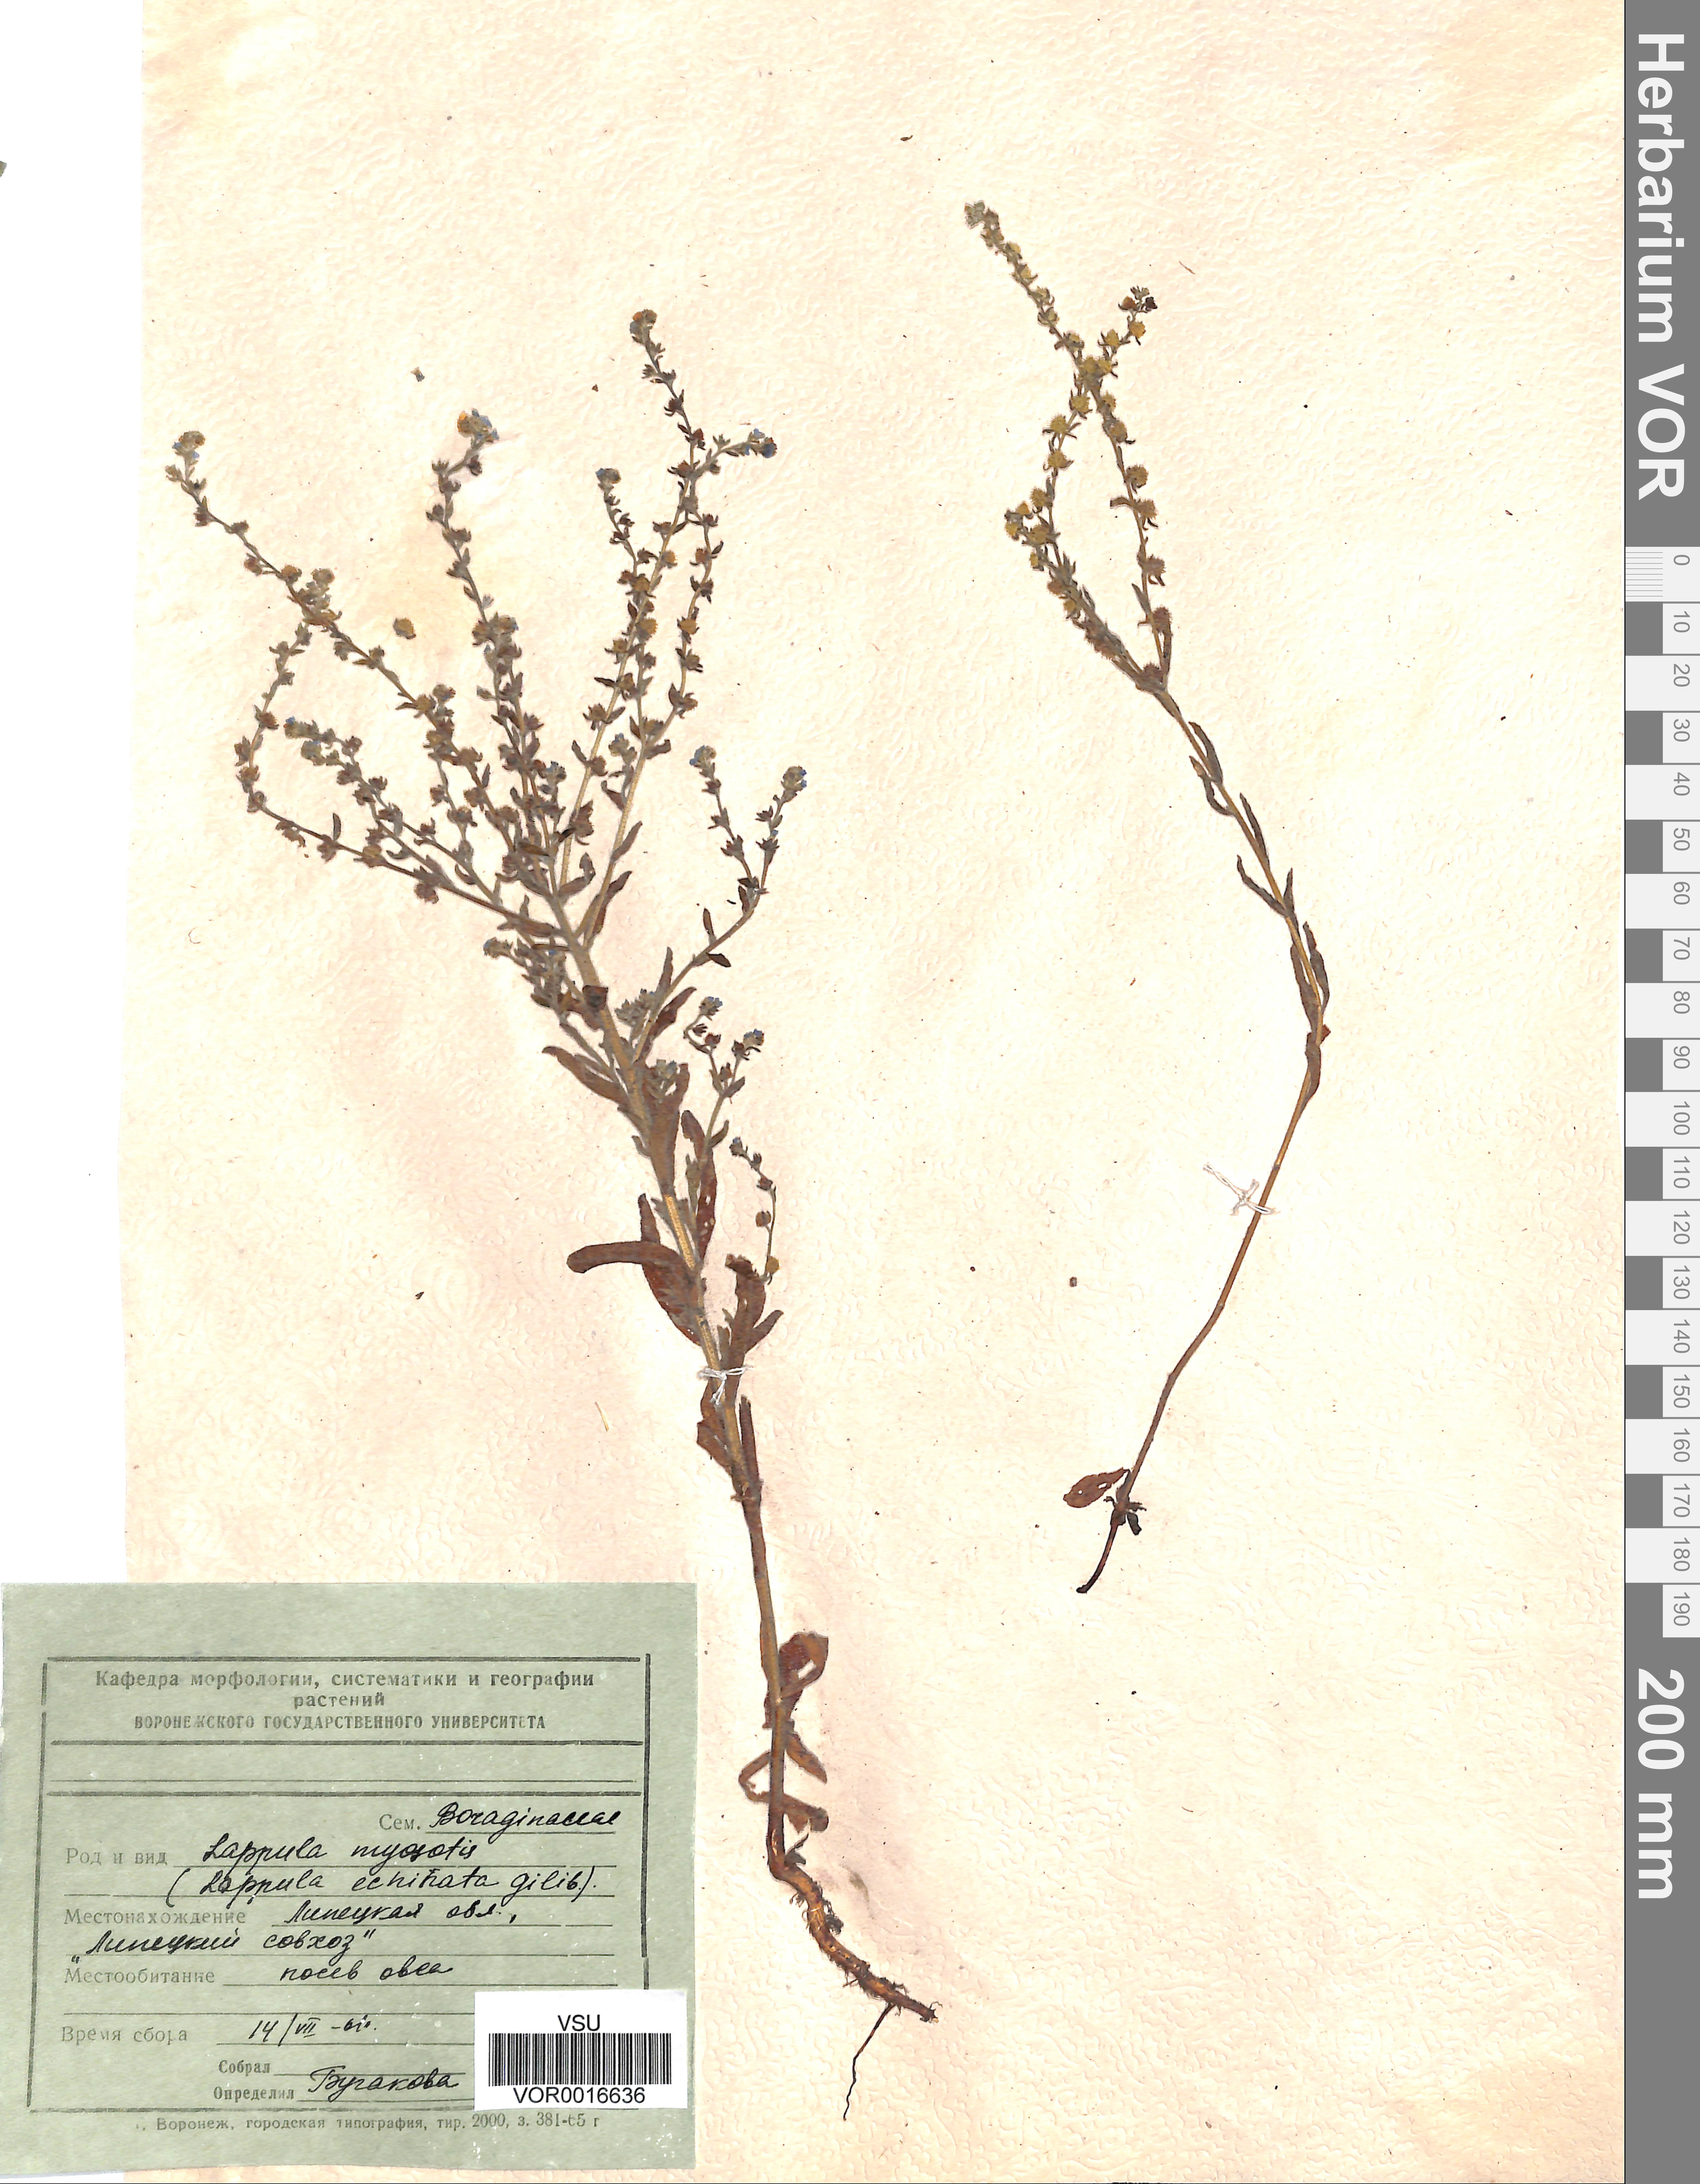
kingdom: Plantae
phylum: Tracheophyta
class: Magnoliopsida
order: Boraginales
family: Boraginaceae
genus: Lappula
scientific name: Lappula squarrosa
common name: European stickseed
